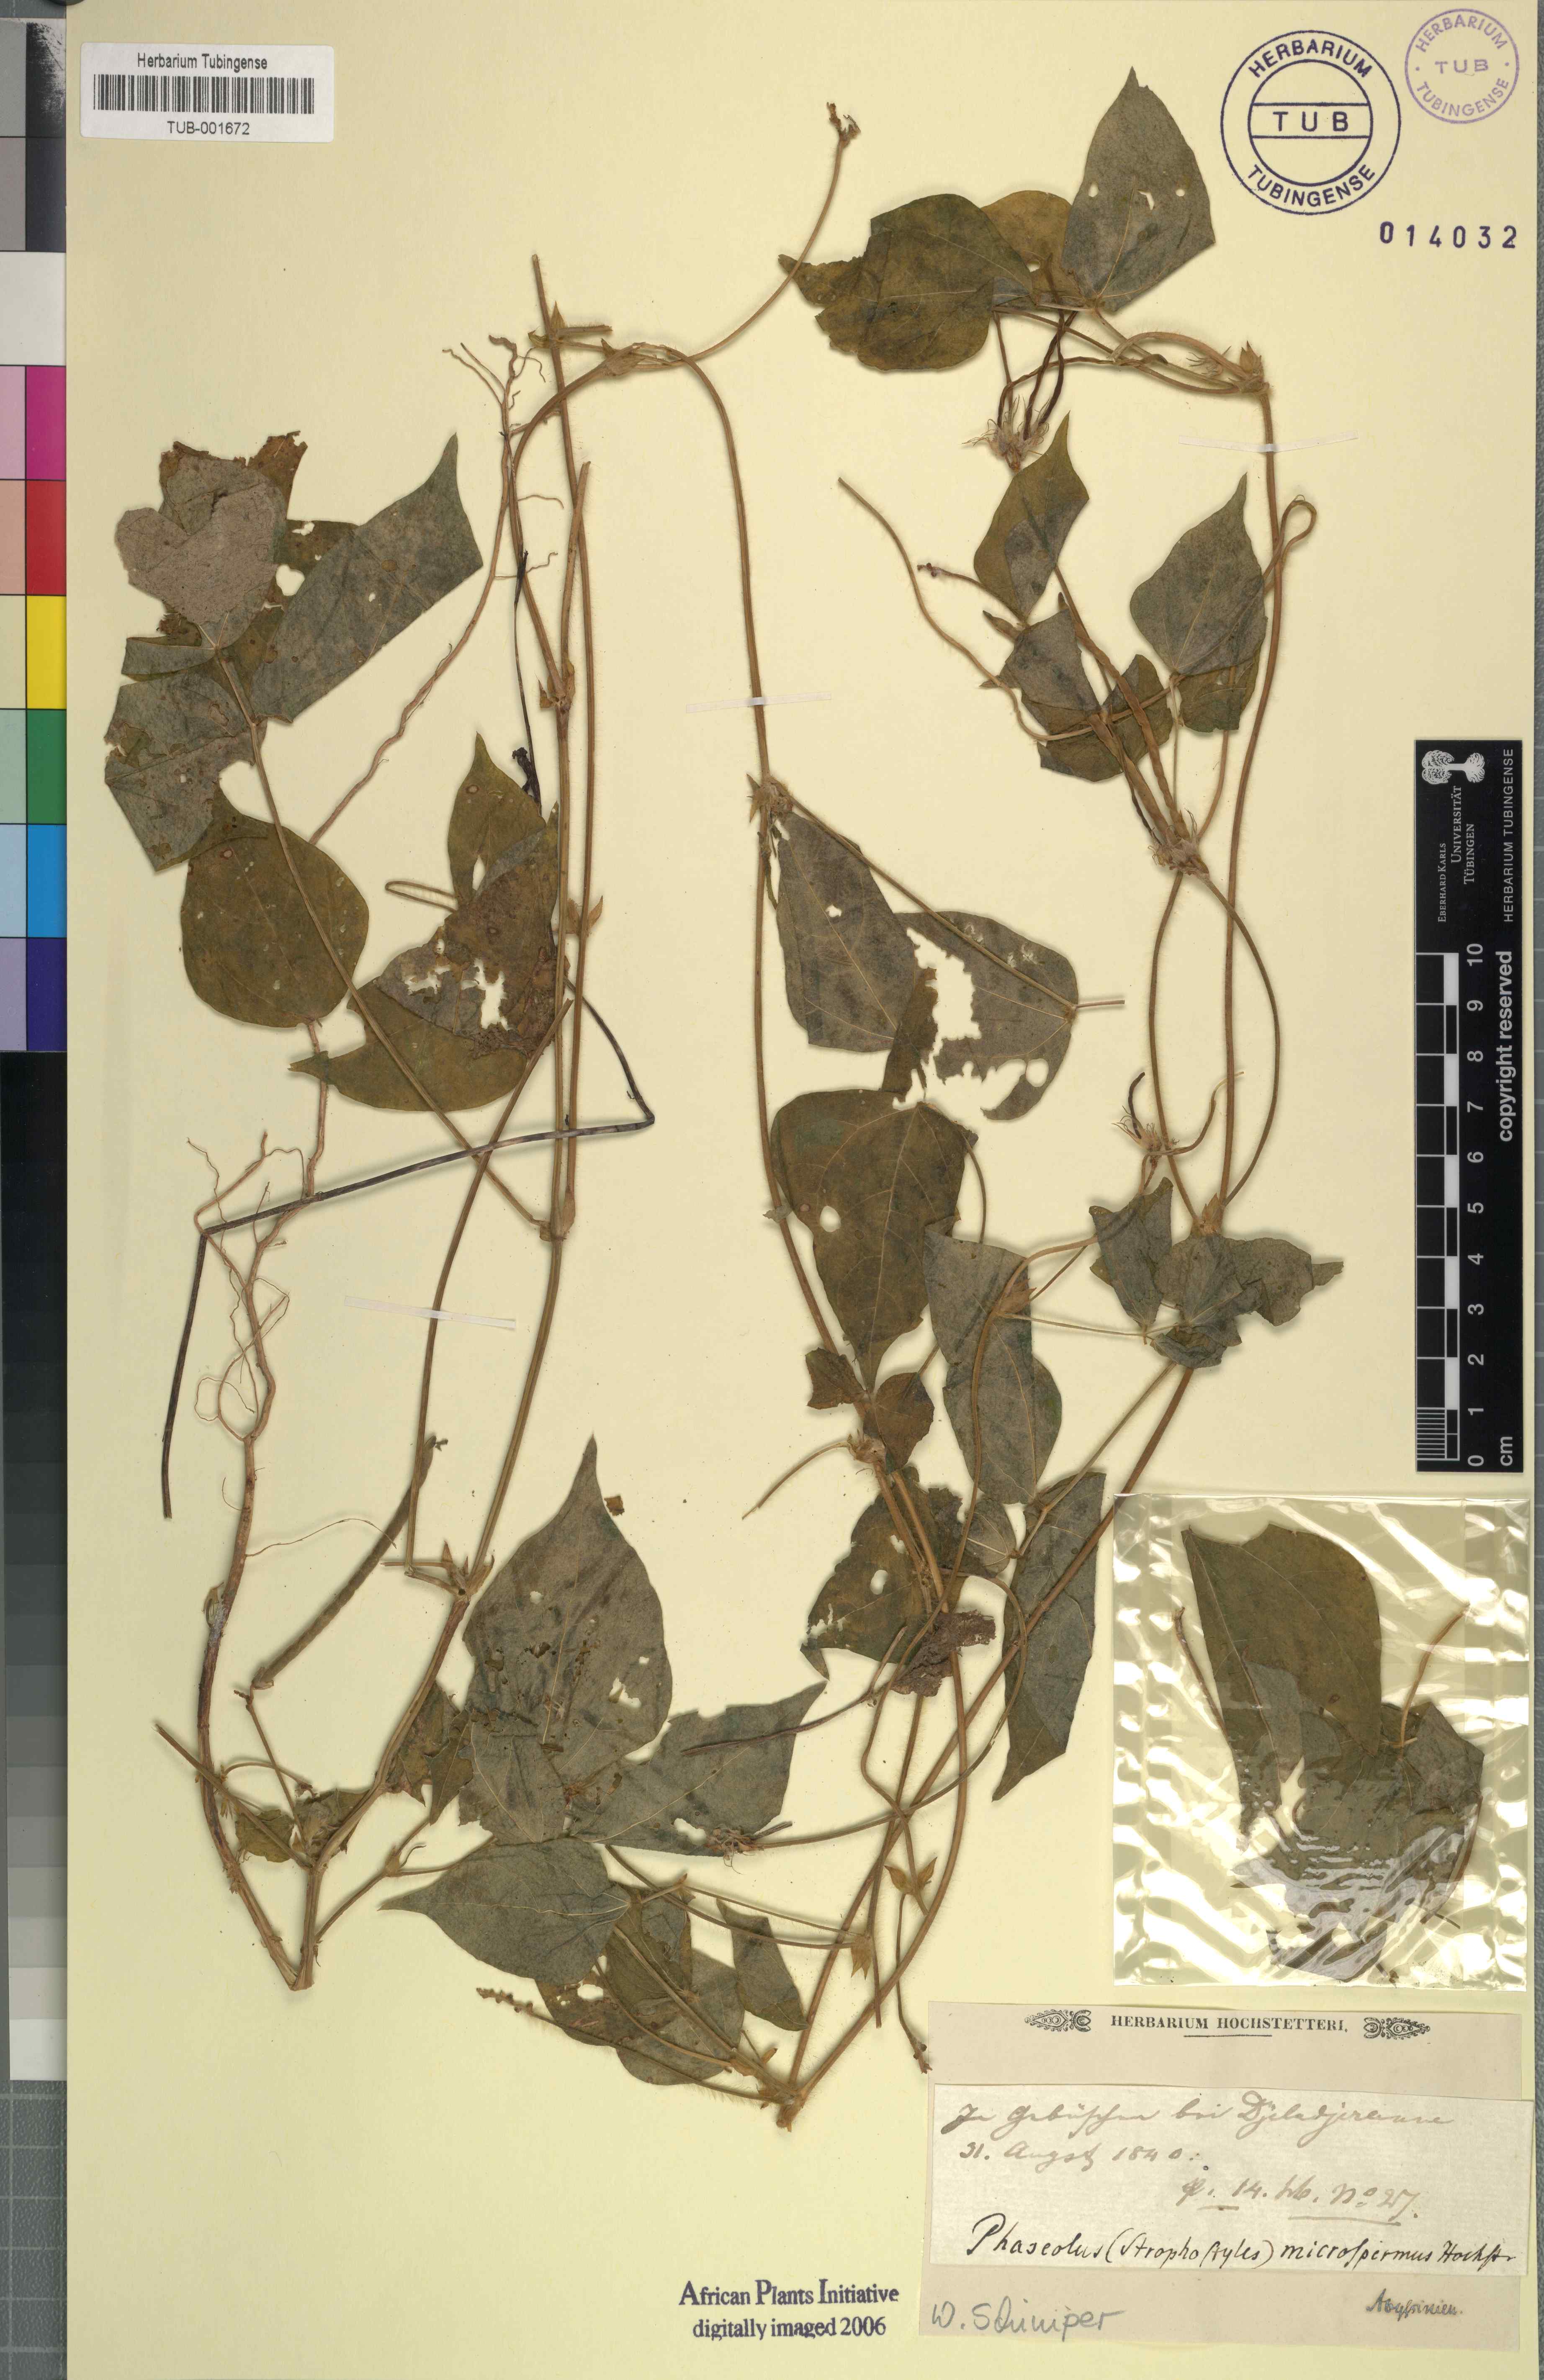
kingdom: Plantae
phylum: Tracheophyta
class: Magnoliopsida
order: Fabales
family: Fabaceae
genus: Vigna
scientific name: Vigna membranacea
